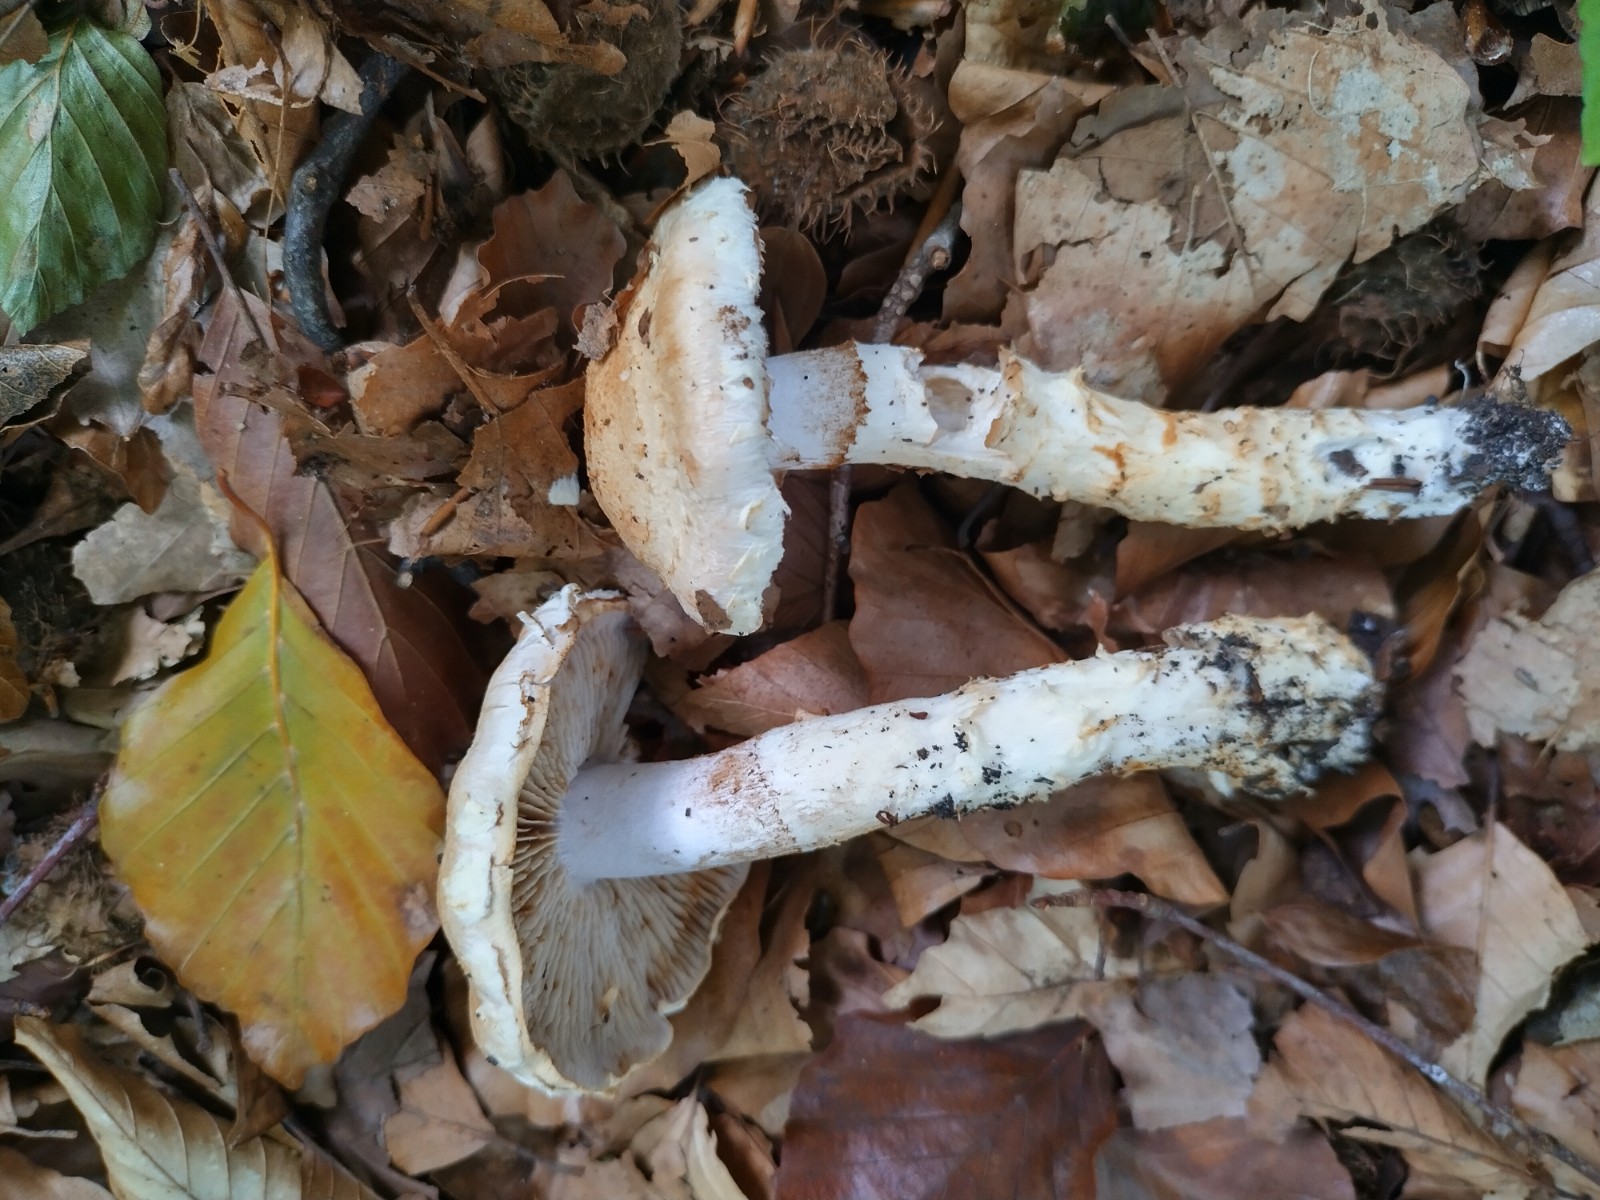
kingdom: Fungi
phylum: Basidiomycota
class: Agaricomycetes
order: Agaricales
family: Cortinariaceae
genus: Phlegmacium
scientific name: Phlegmacium vulpinum
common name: ringbæltet slørhat
